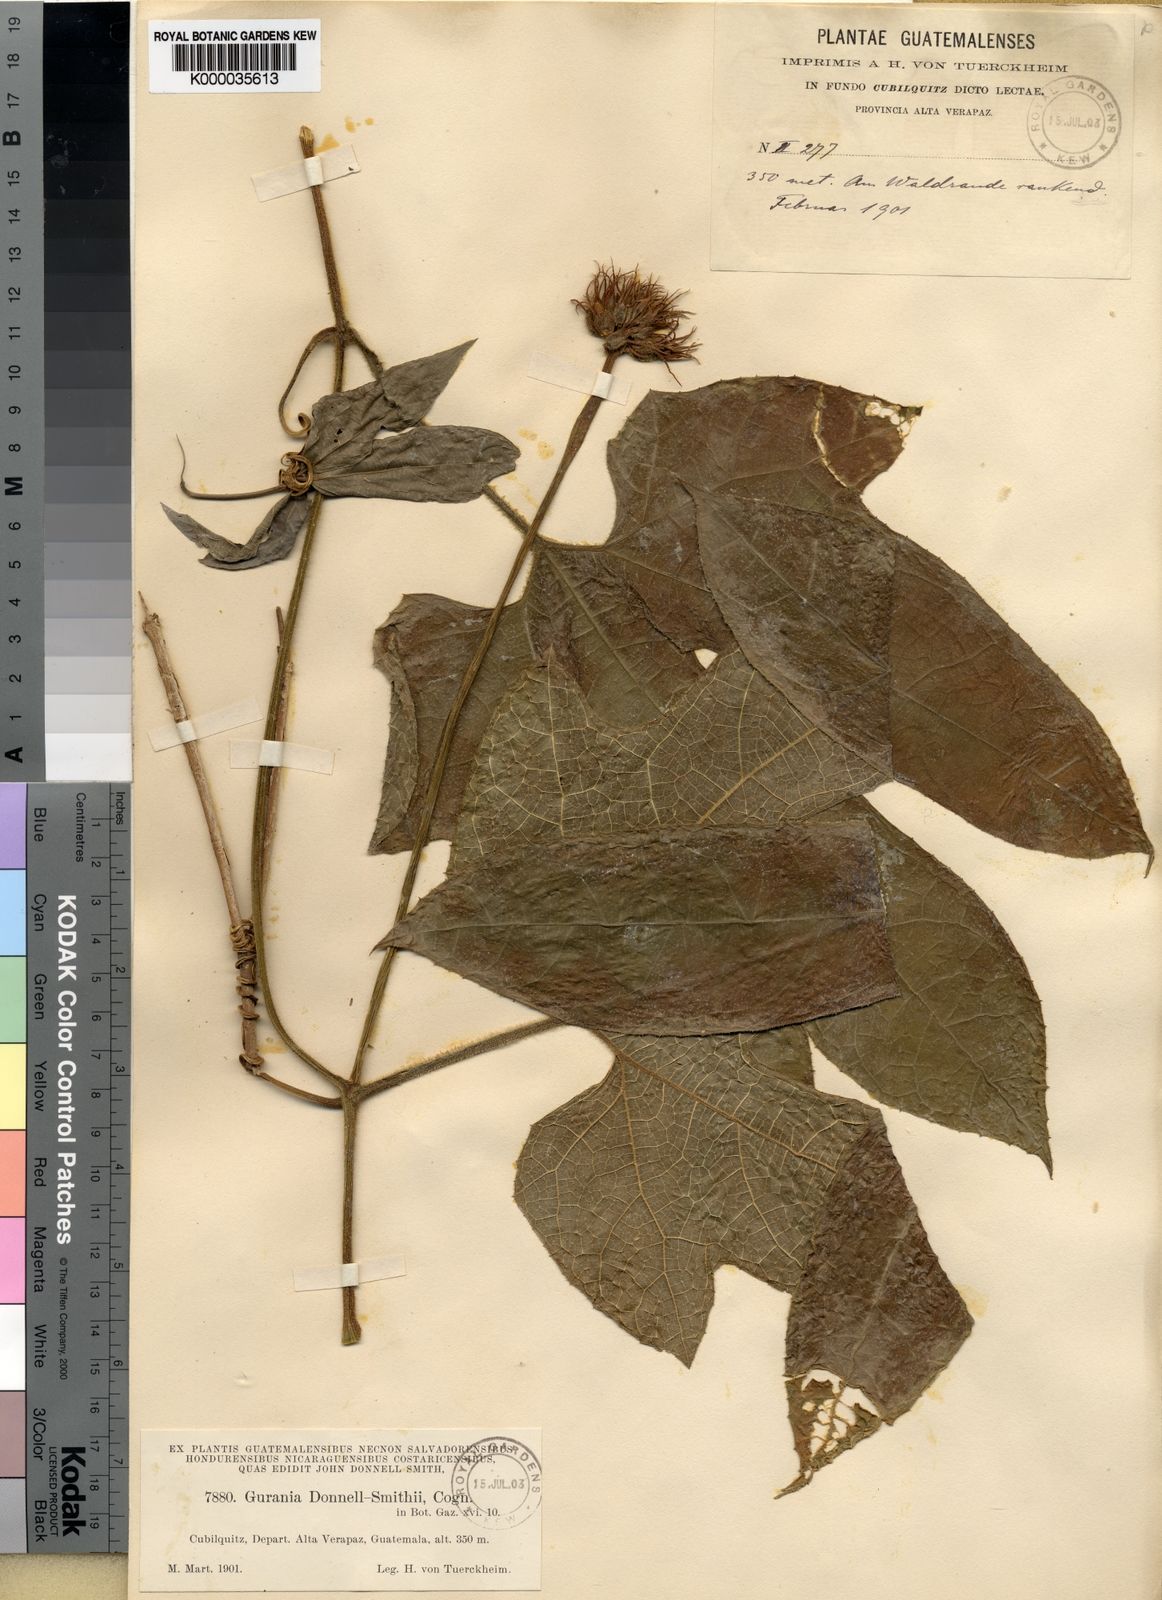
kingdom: Plantae
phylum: Tracheophyta
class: Magnoliopsida
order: Cucurbitales
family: Cucurbitaceae
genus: Gurania
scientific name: Gurania makoyana
